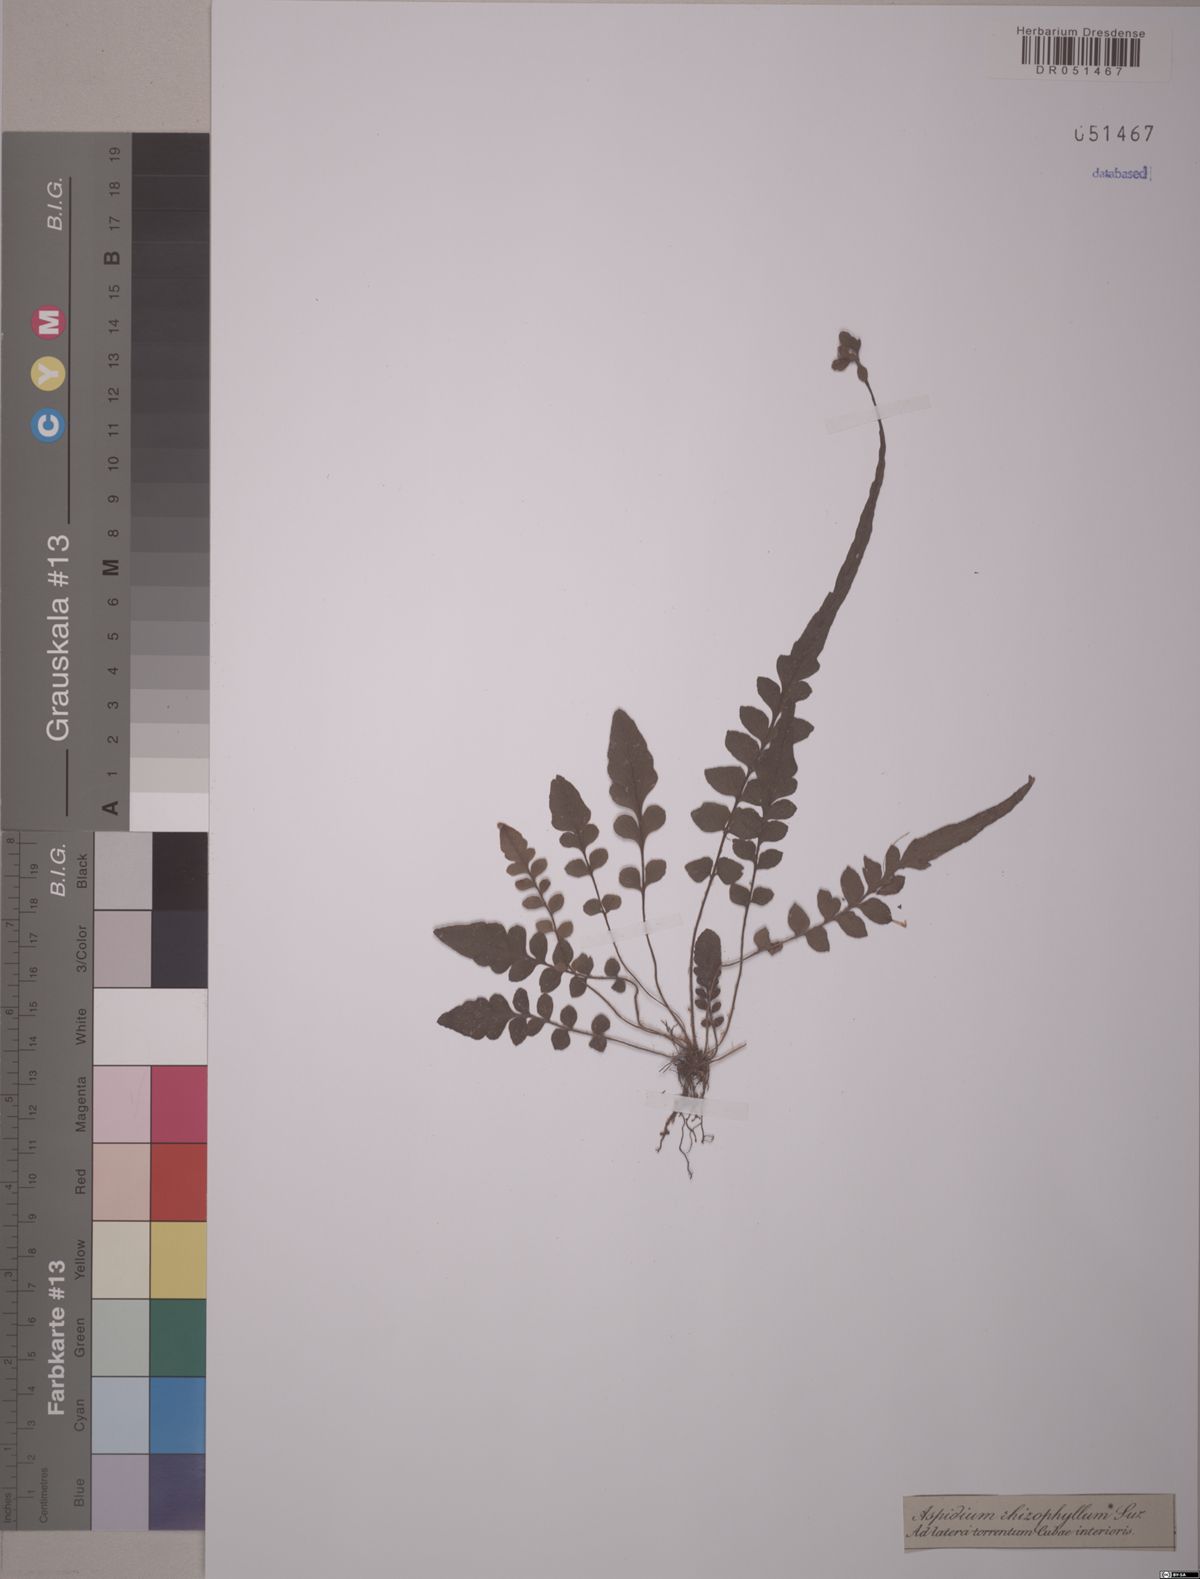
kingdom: Plantae
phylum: Tracheophyta
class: Polypodiopsida
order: Polypodiales
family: Dryopteridaceae
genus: Polystichum
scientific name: Polystichum rhizophyllum
